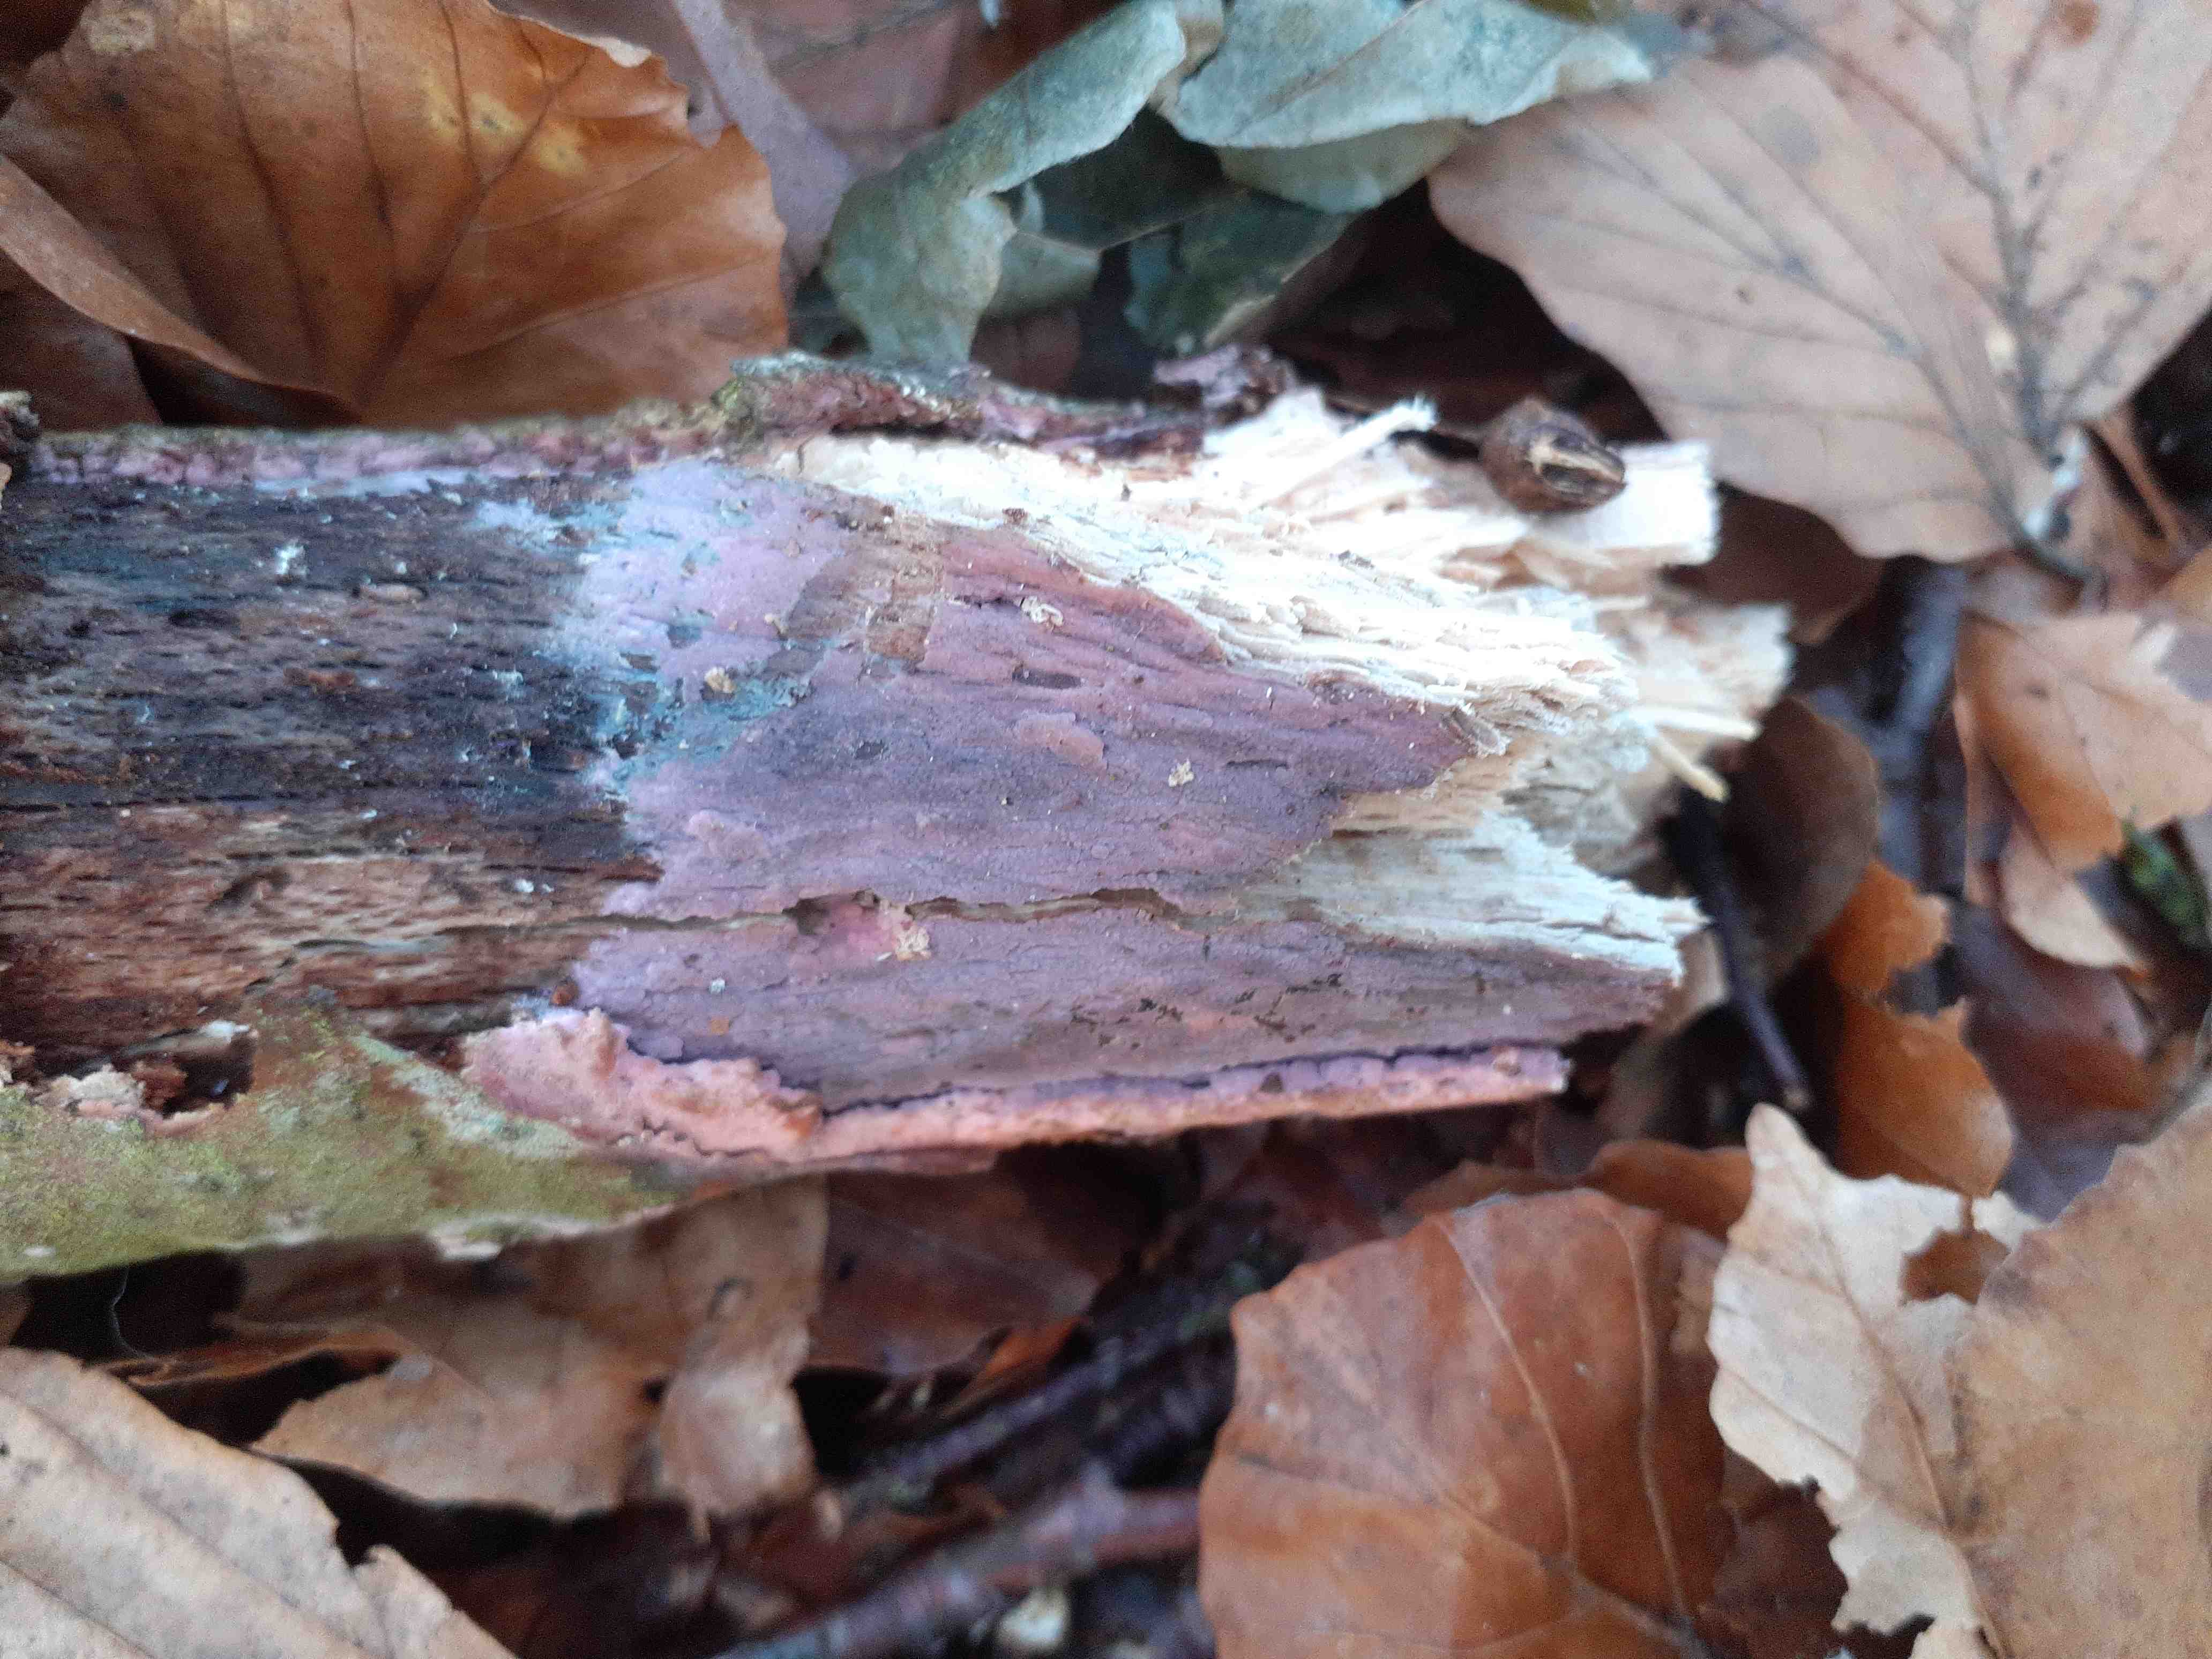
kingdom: Fungi
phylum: Basidiomycota
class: Agaricomycetes
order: Cantharellales
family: Tulasnellaceae
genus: Tulasnella
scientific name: Tulasnella violea
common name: violet ballonhinde
